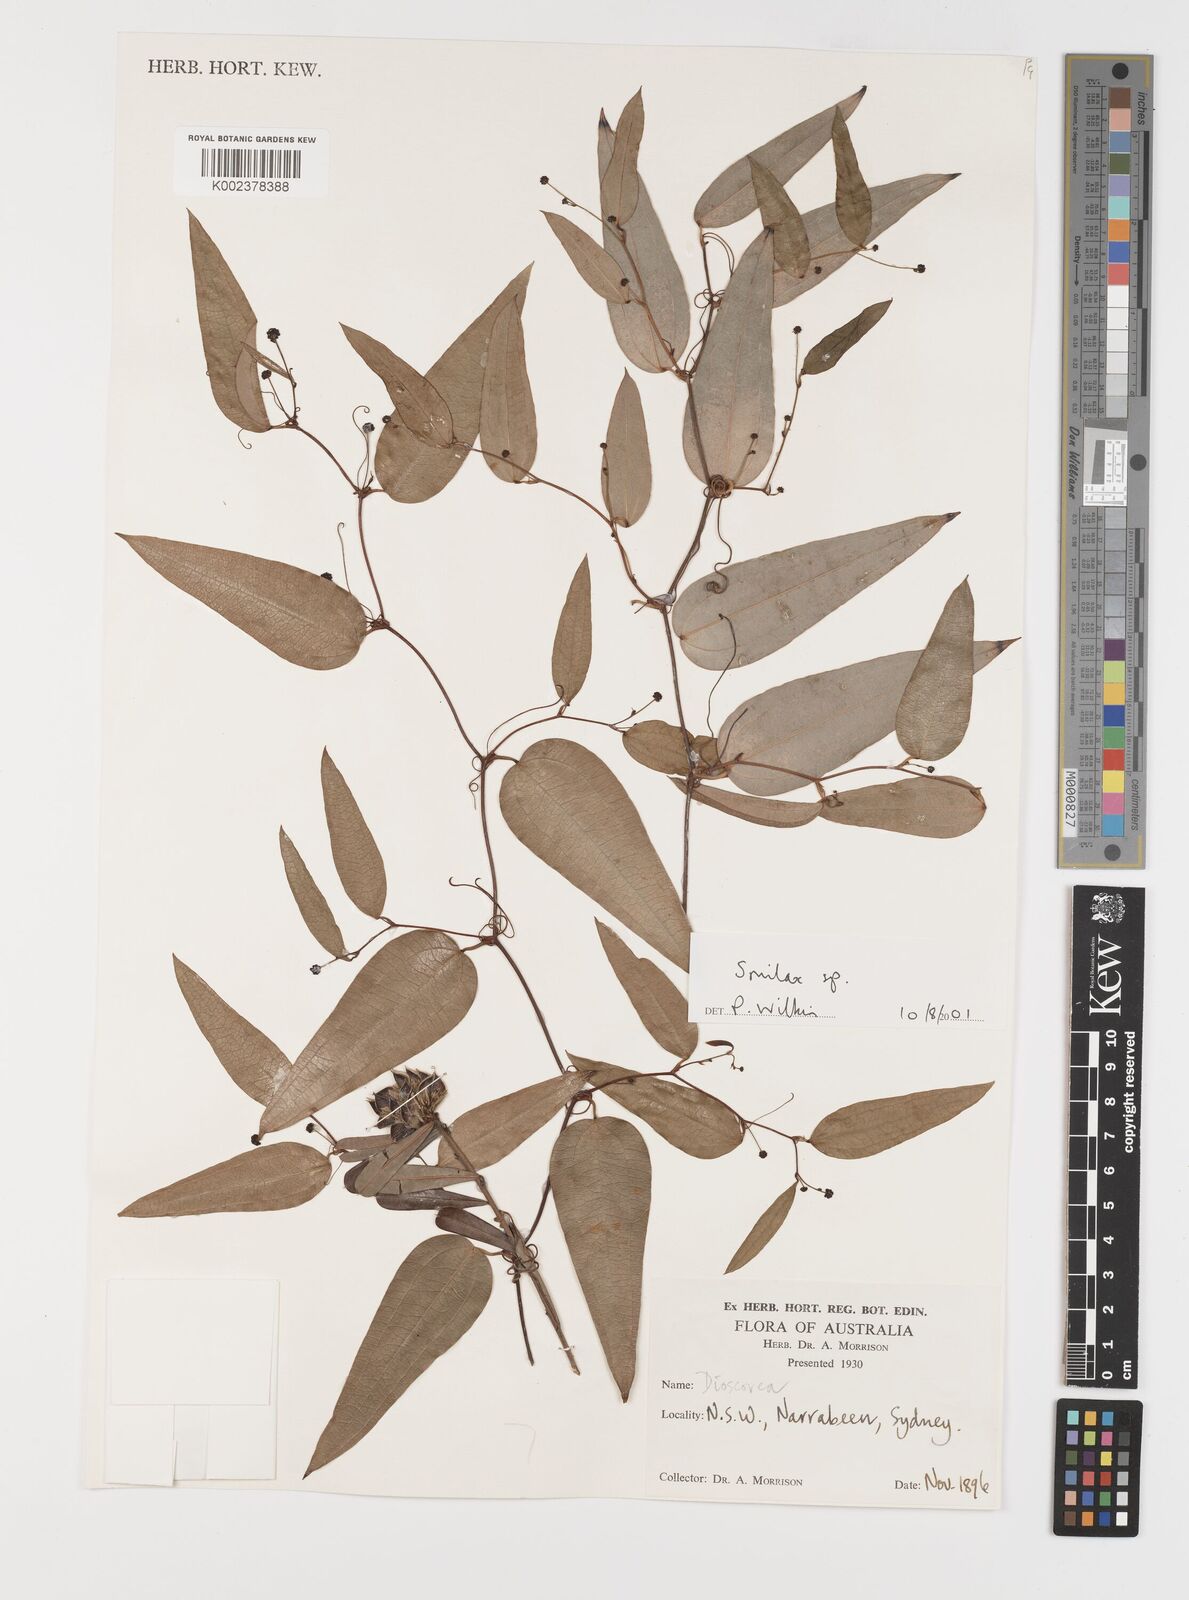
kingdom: Plantae
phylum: Tracheophyta
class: Liliopsida
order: Liliales
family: Smilacaceae
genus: Smilax
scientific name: Smilax
